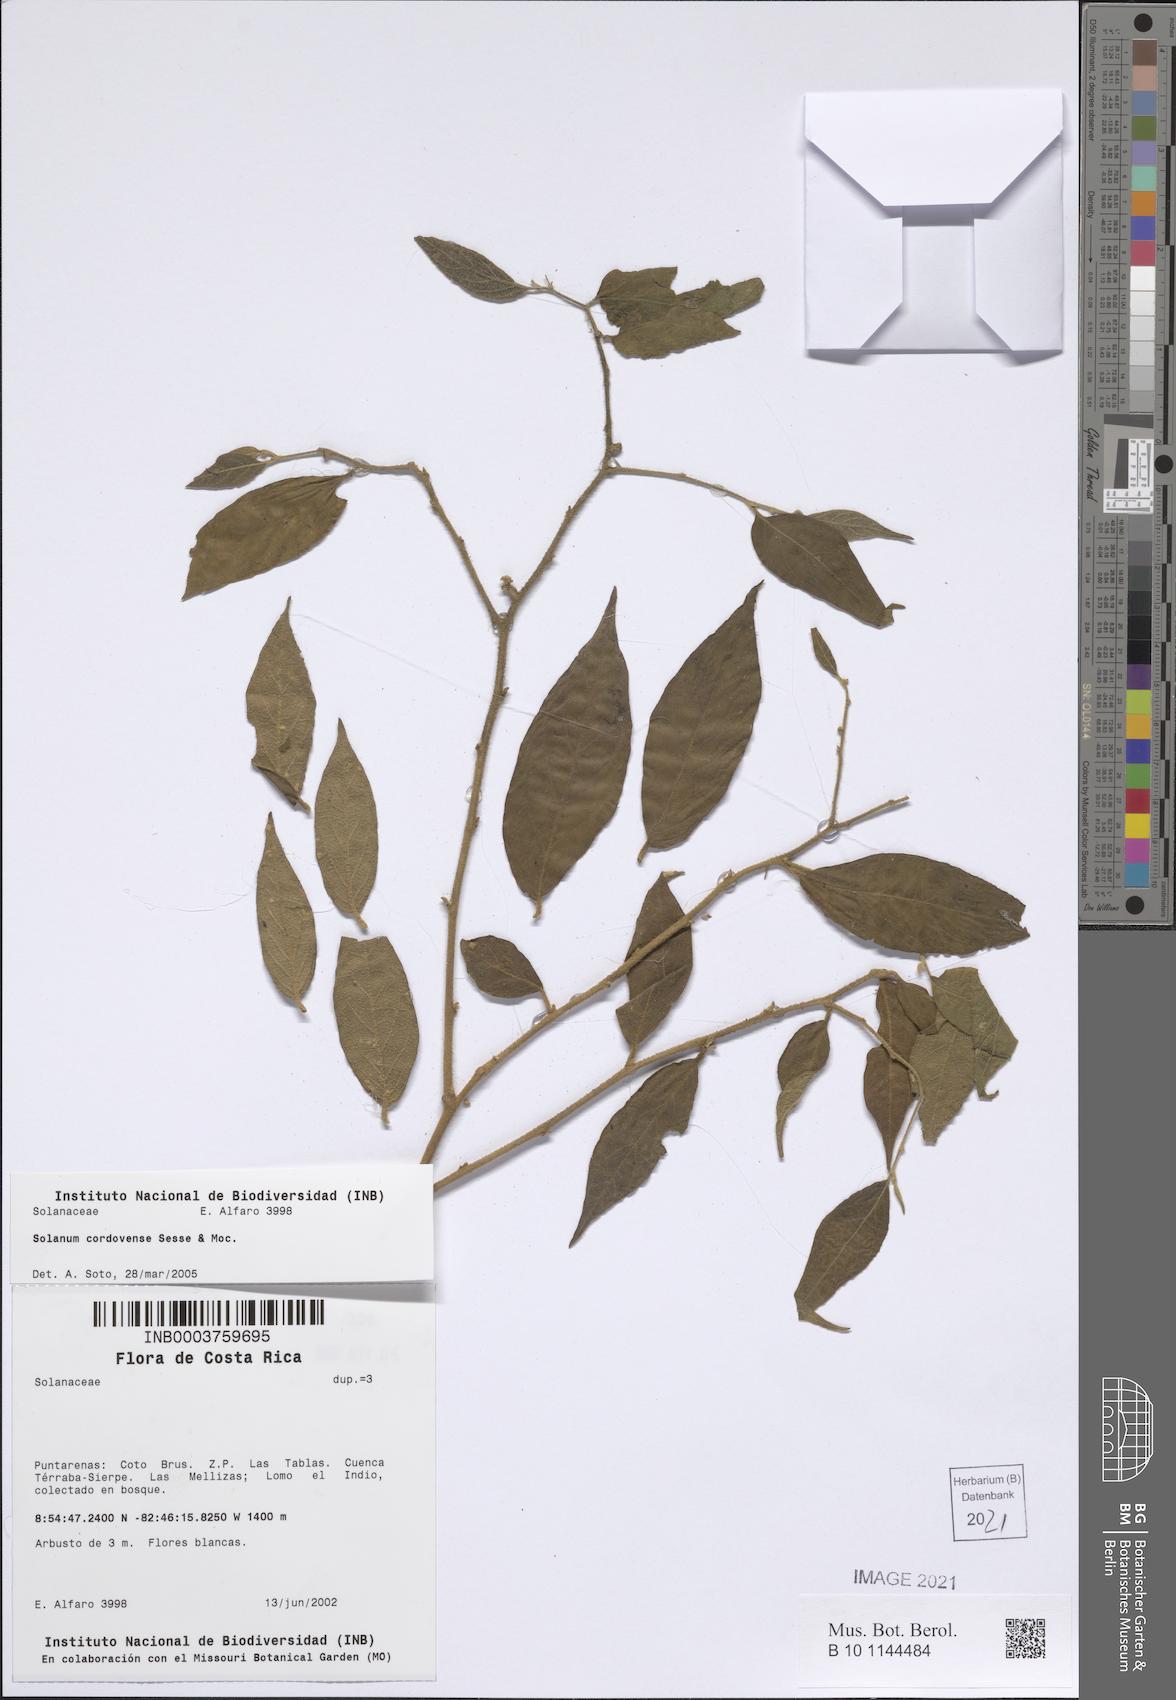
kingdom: Plantae
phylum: Tracheophyta
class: Magnoliopsida
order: Solanales
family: Solanaceae
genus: Solanum
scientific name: Solanum cordovense
